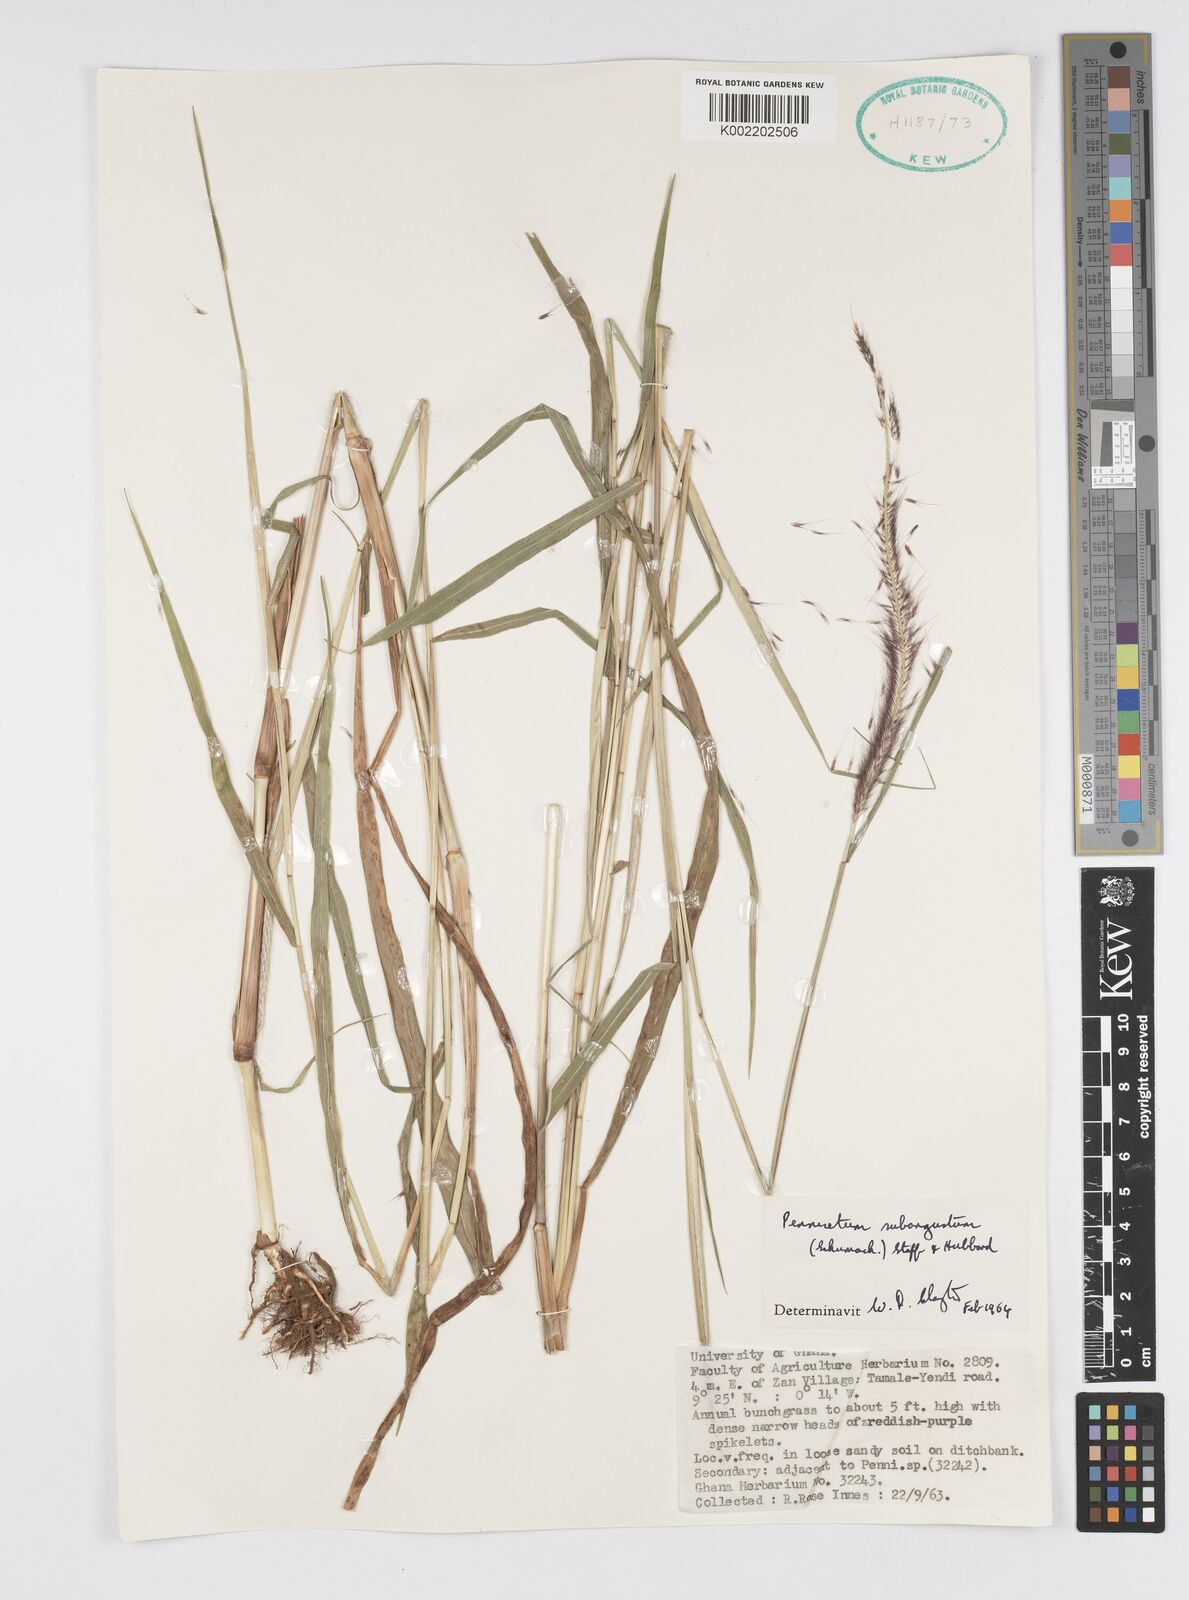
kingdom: Plantae
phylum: Tracheophyta
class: Liliopsida
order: Poales
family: Poaceae
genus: Setaria
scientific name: Setaria parviflora
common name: Knotroot bristle-grass
